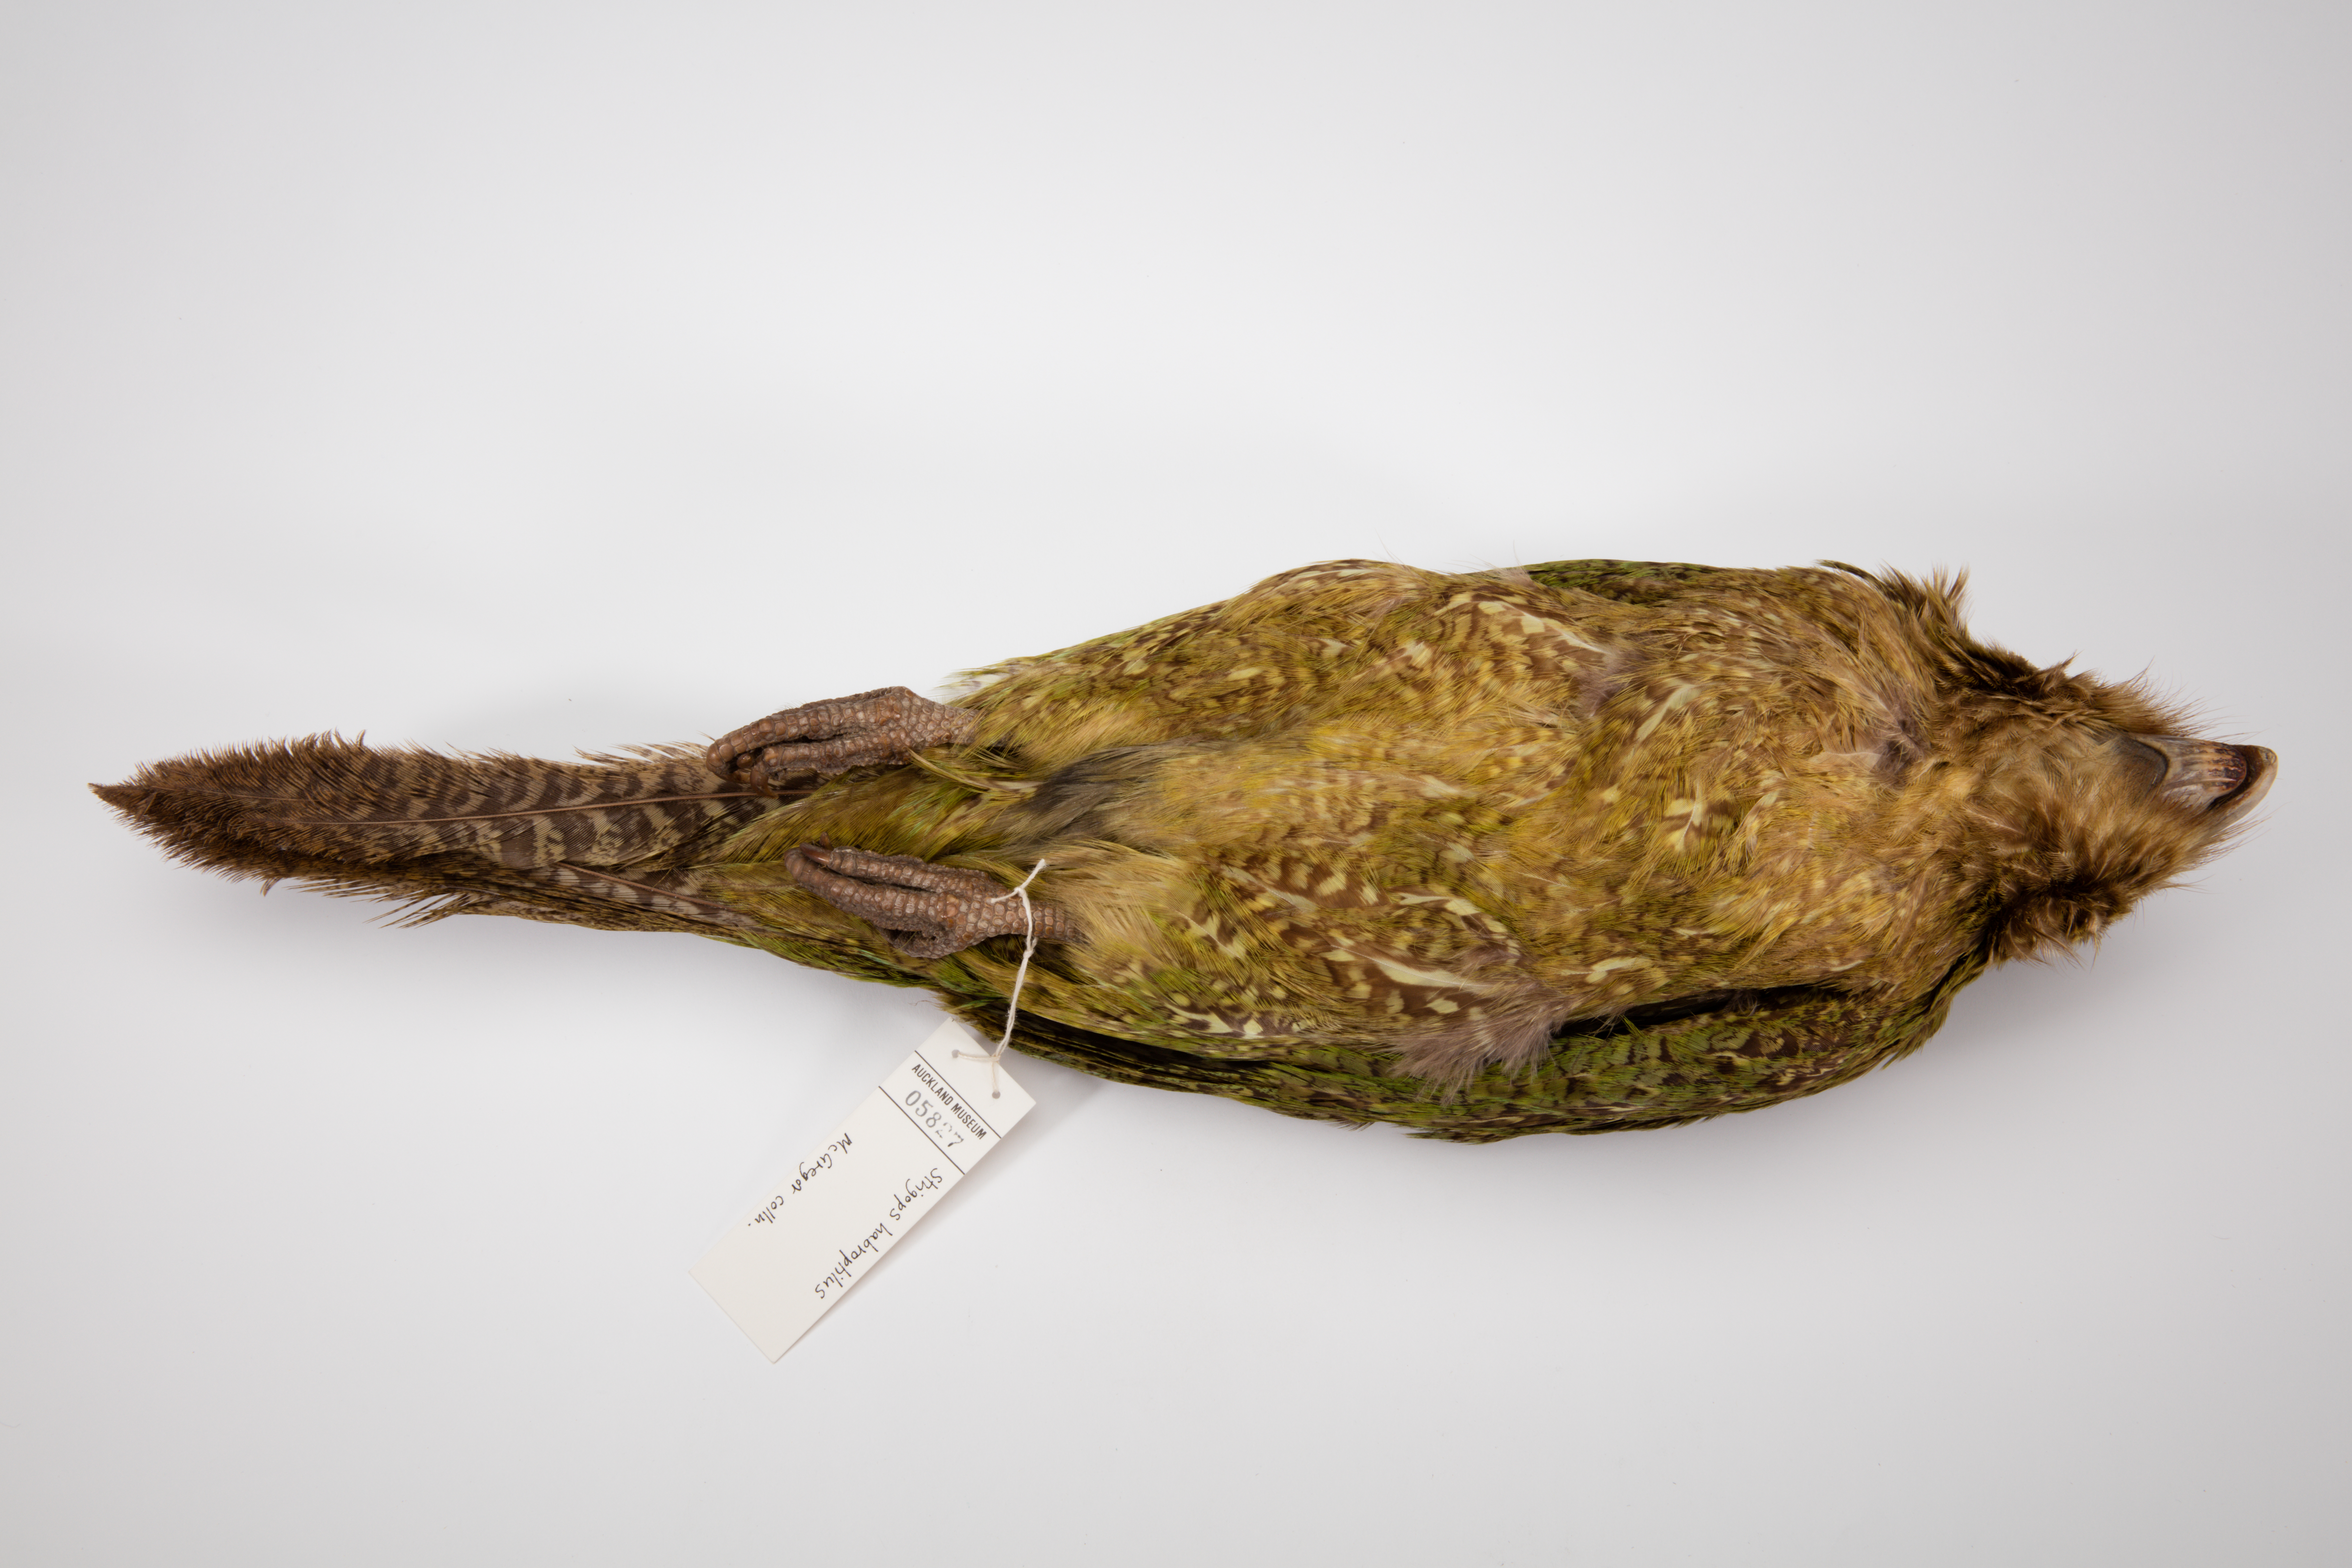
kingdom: Animalia
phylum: Chordata
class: Aves
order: Psittaciformes
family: Psittacidae
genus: Strigops
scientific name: Strigops habroptila
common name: Kakapo
